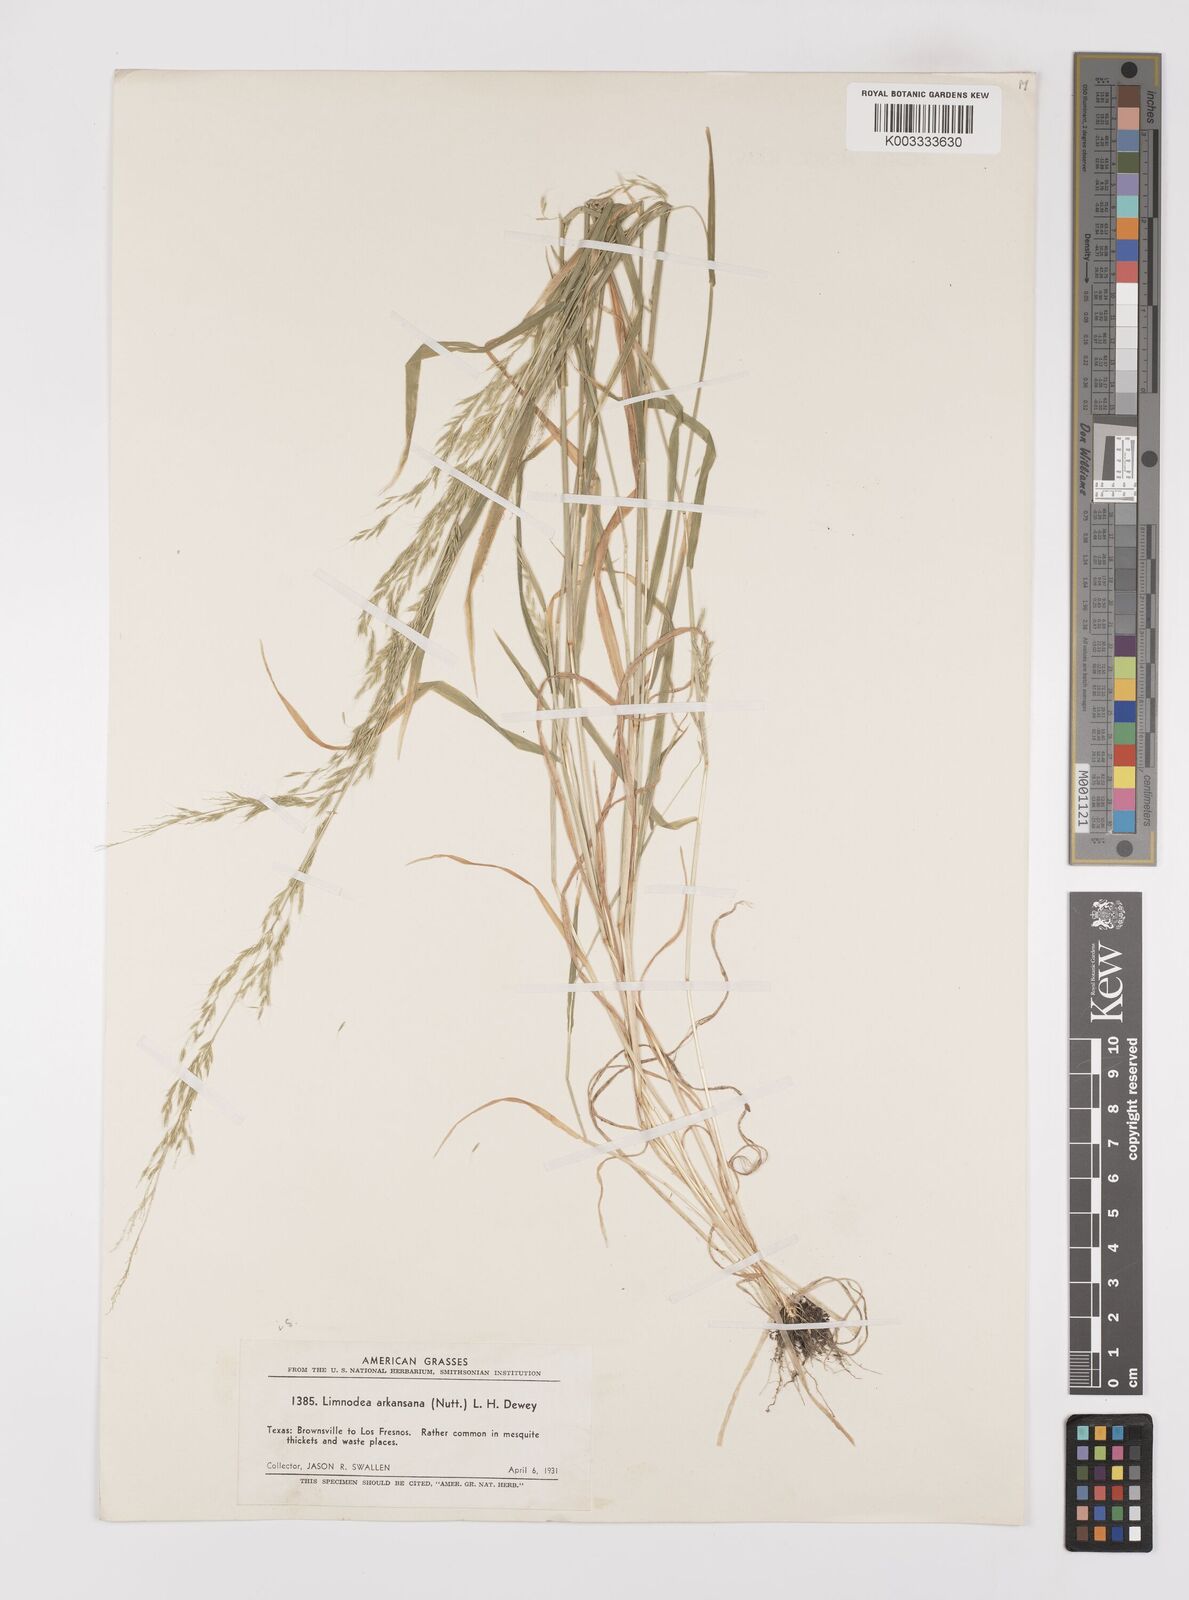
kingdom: Plantae
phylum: Tracheophyta
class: Liliopsida
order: Poales
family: Poaceae
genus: Limnodea
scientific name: Limnodea arkansana
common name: Ozark-grass
